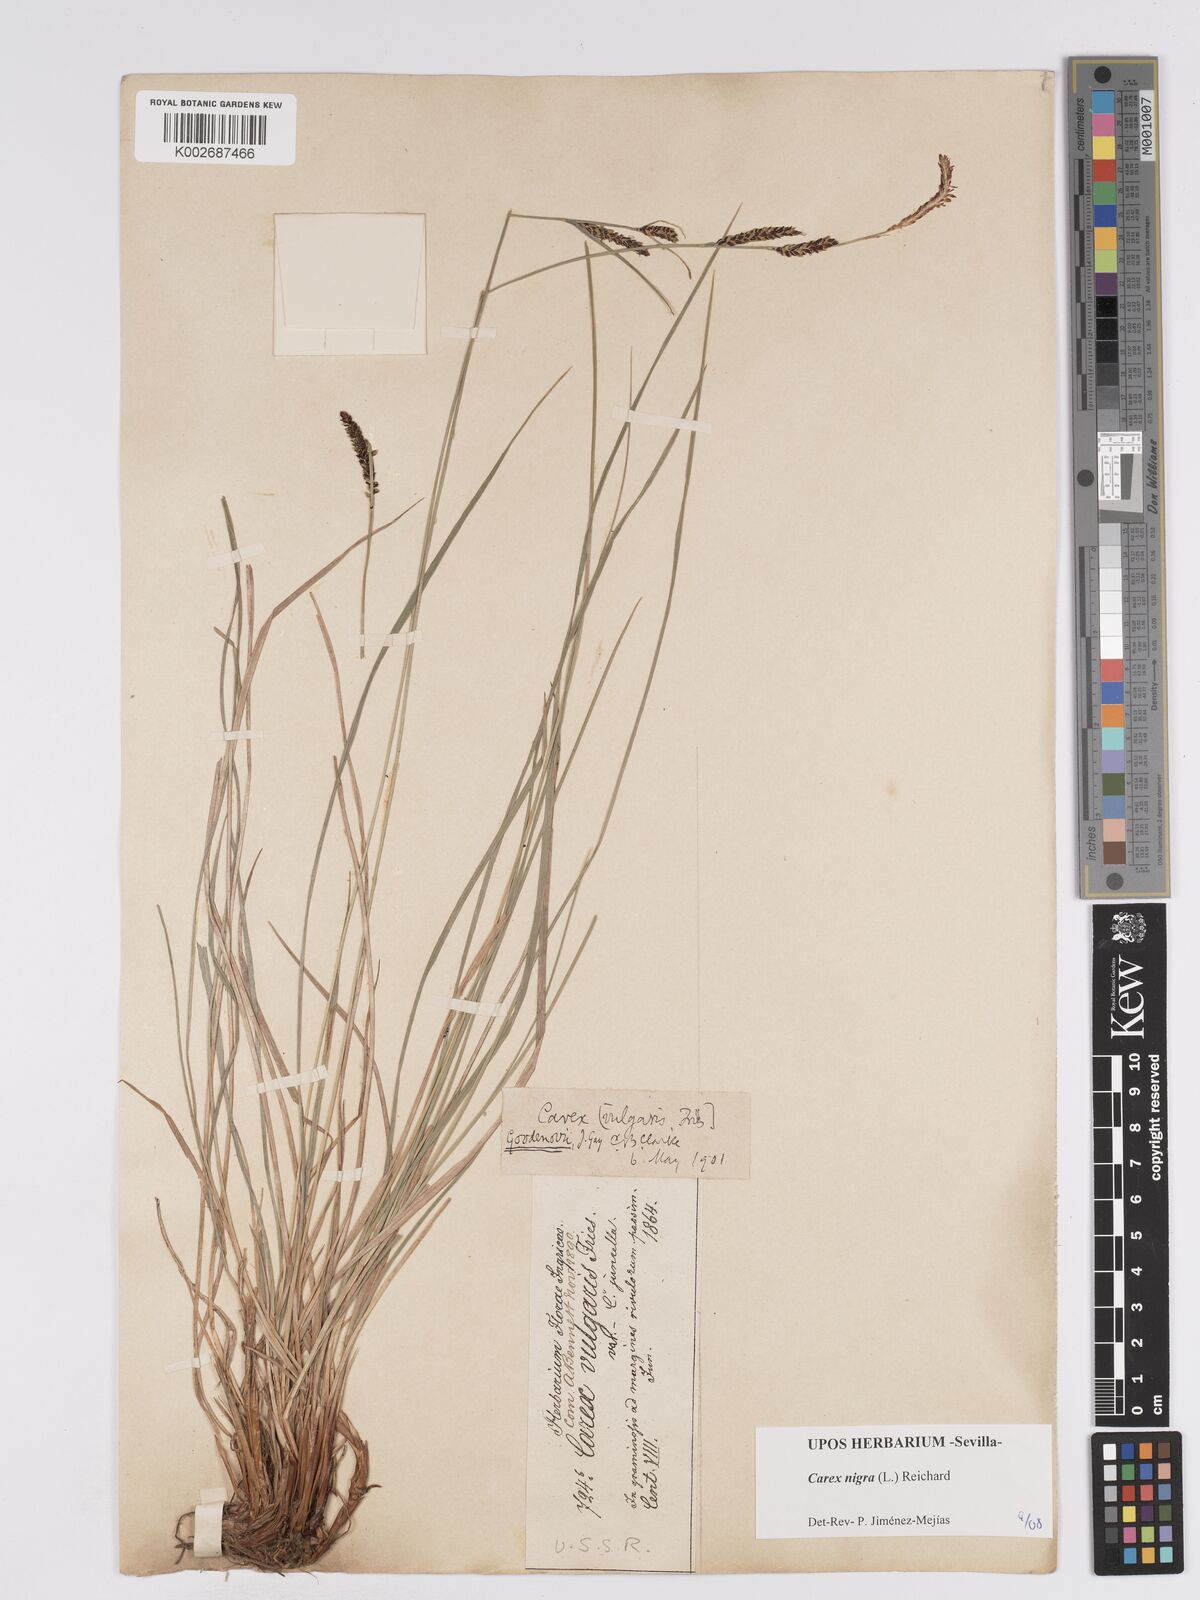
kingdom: Plantae
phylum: Tracheophyta
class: Liliopsida
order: Poales
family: Cyperaceae
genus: Carex
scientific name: Carex nigra
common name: Common sedge
